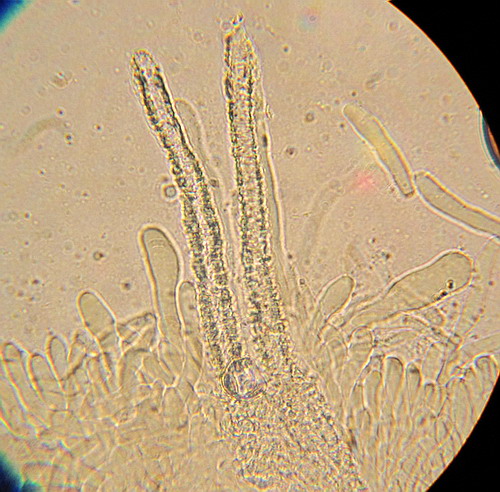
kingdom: Fungi
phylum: Basidiomycota
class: Agaricomycetes
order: Polyporales
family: Phanerochaetaceae
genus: Hyphodermella
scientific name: Hyphodermella corrugata
